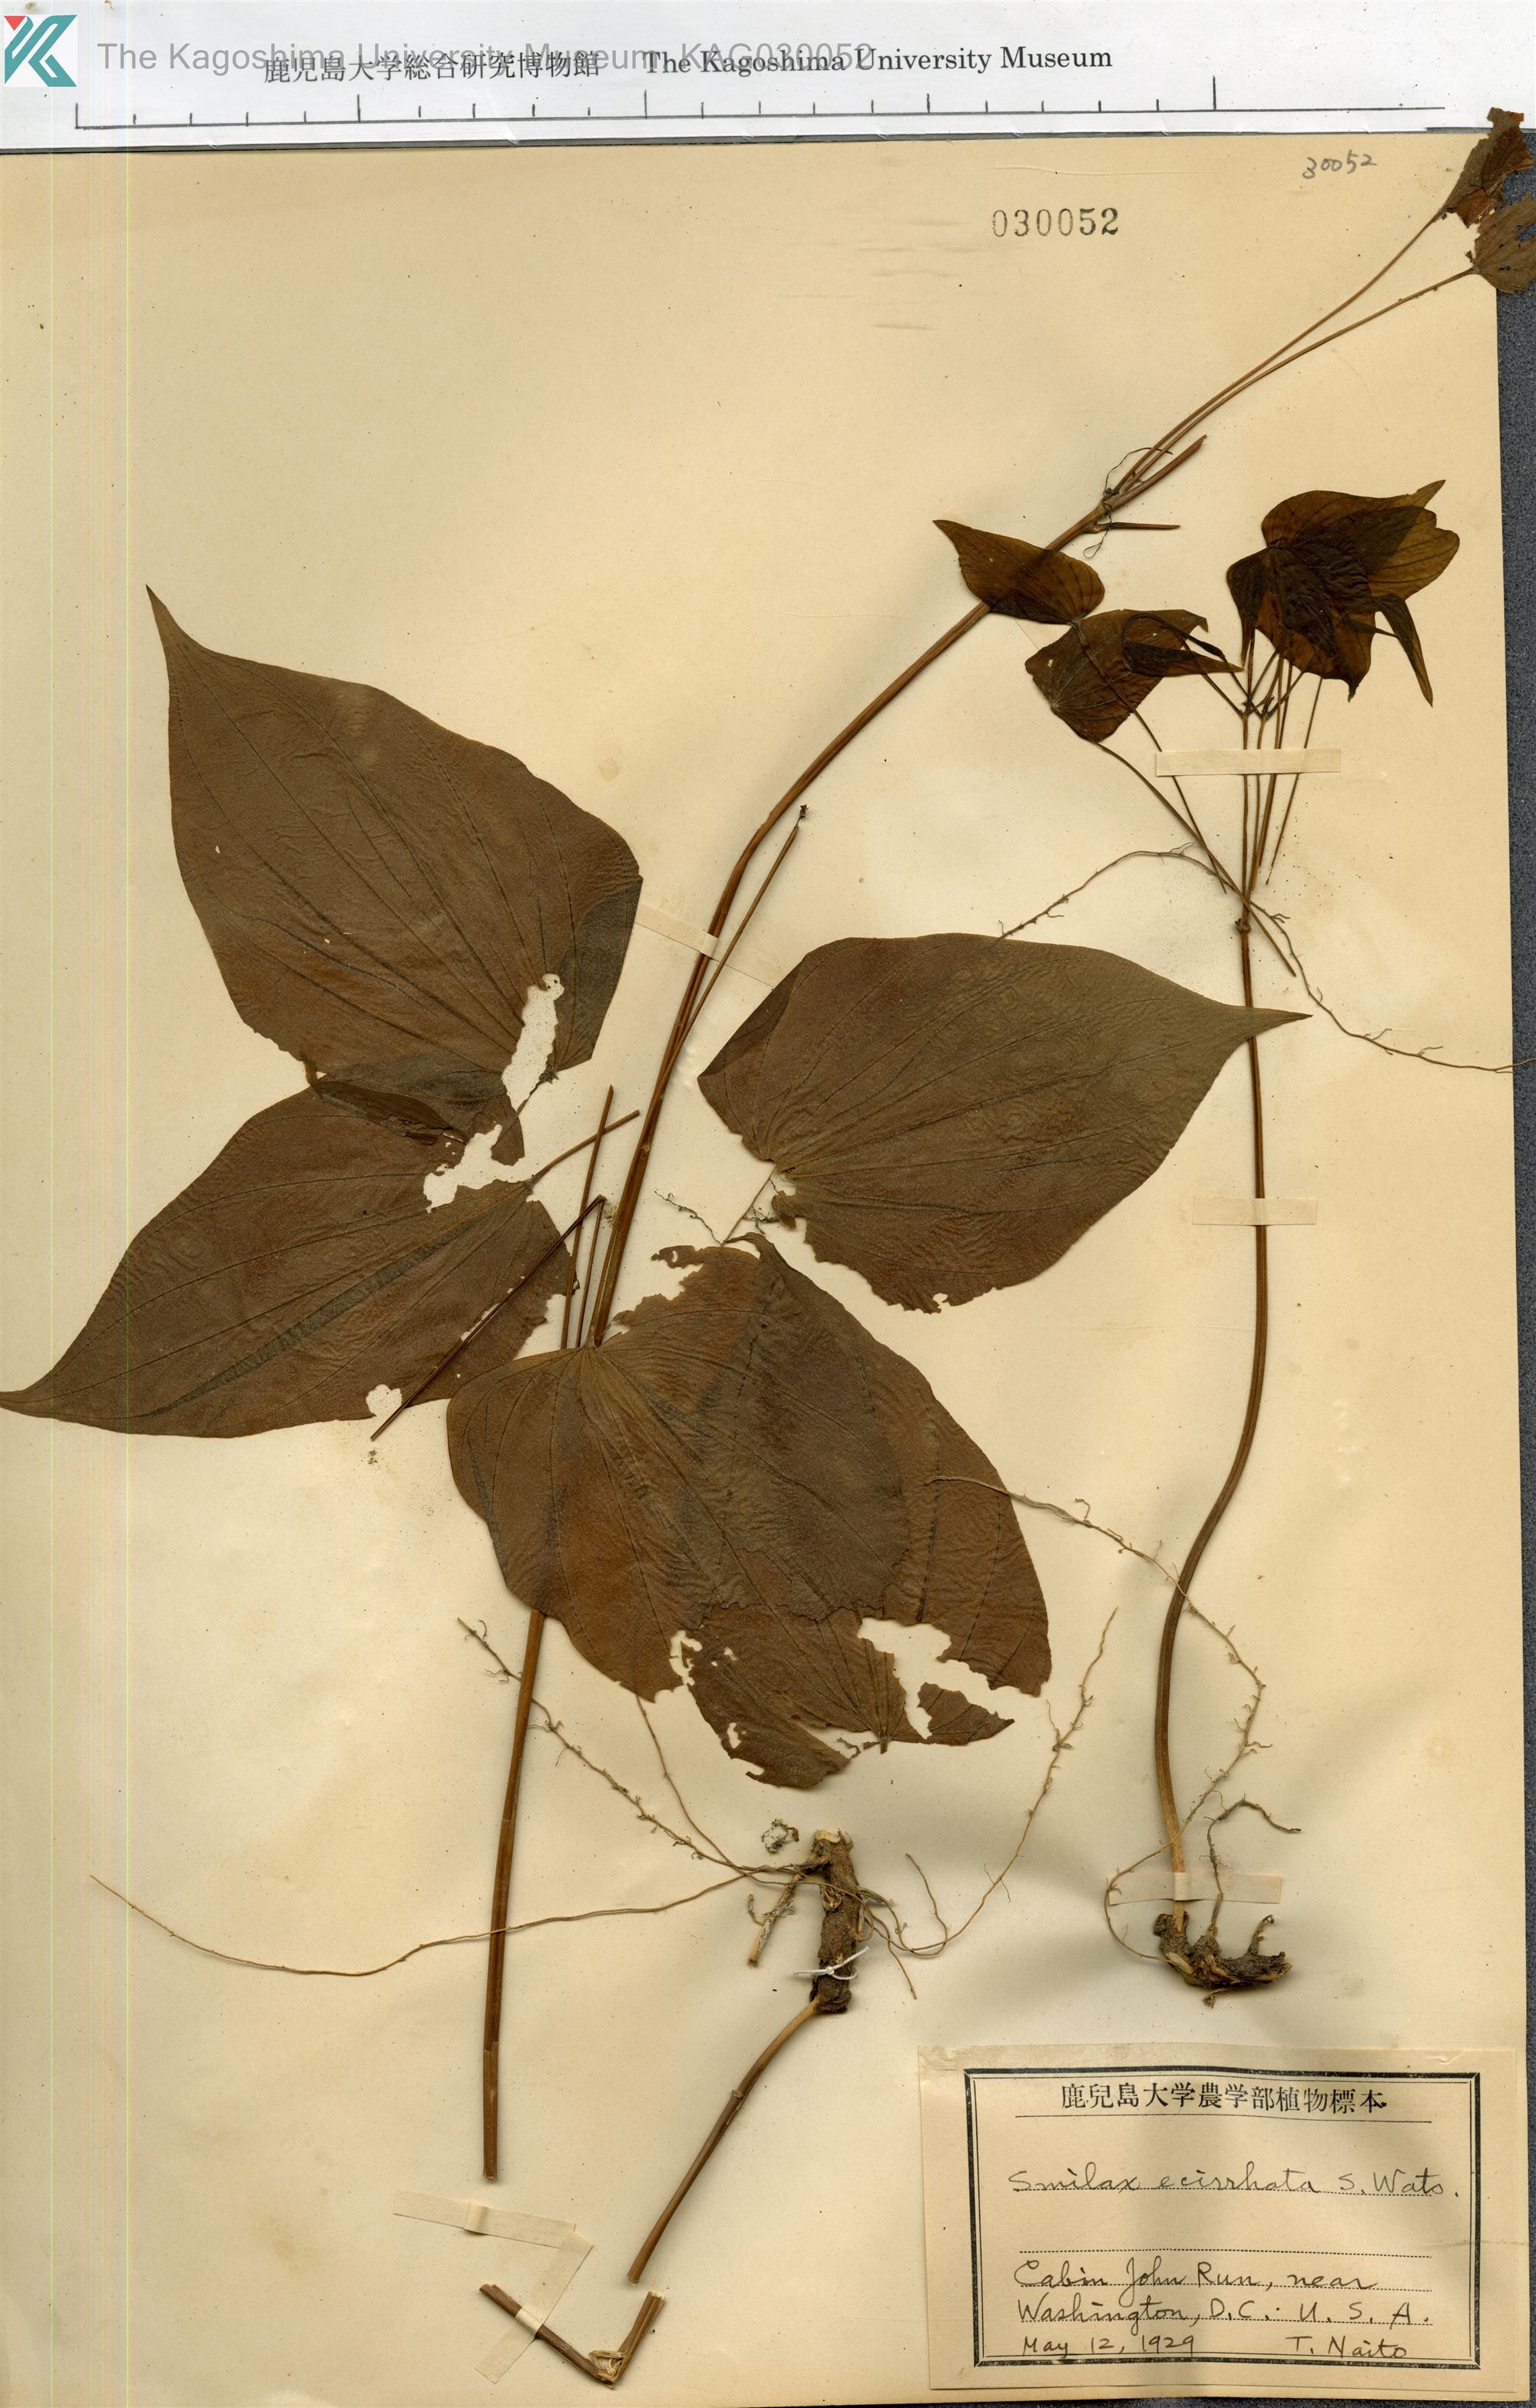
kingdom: Plantae
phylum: Tracheophyta
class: Liliopsida
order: Dioscoreales
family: Dioscoreaceae
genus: Dioscorea
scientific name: Dioscorea
